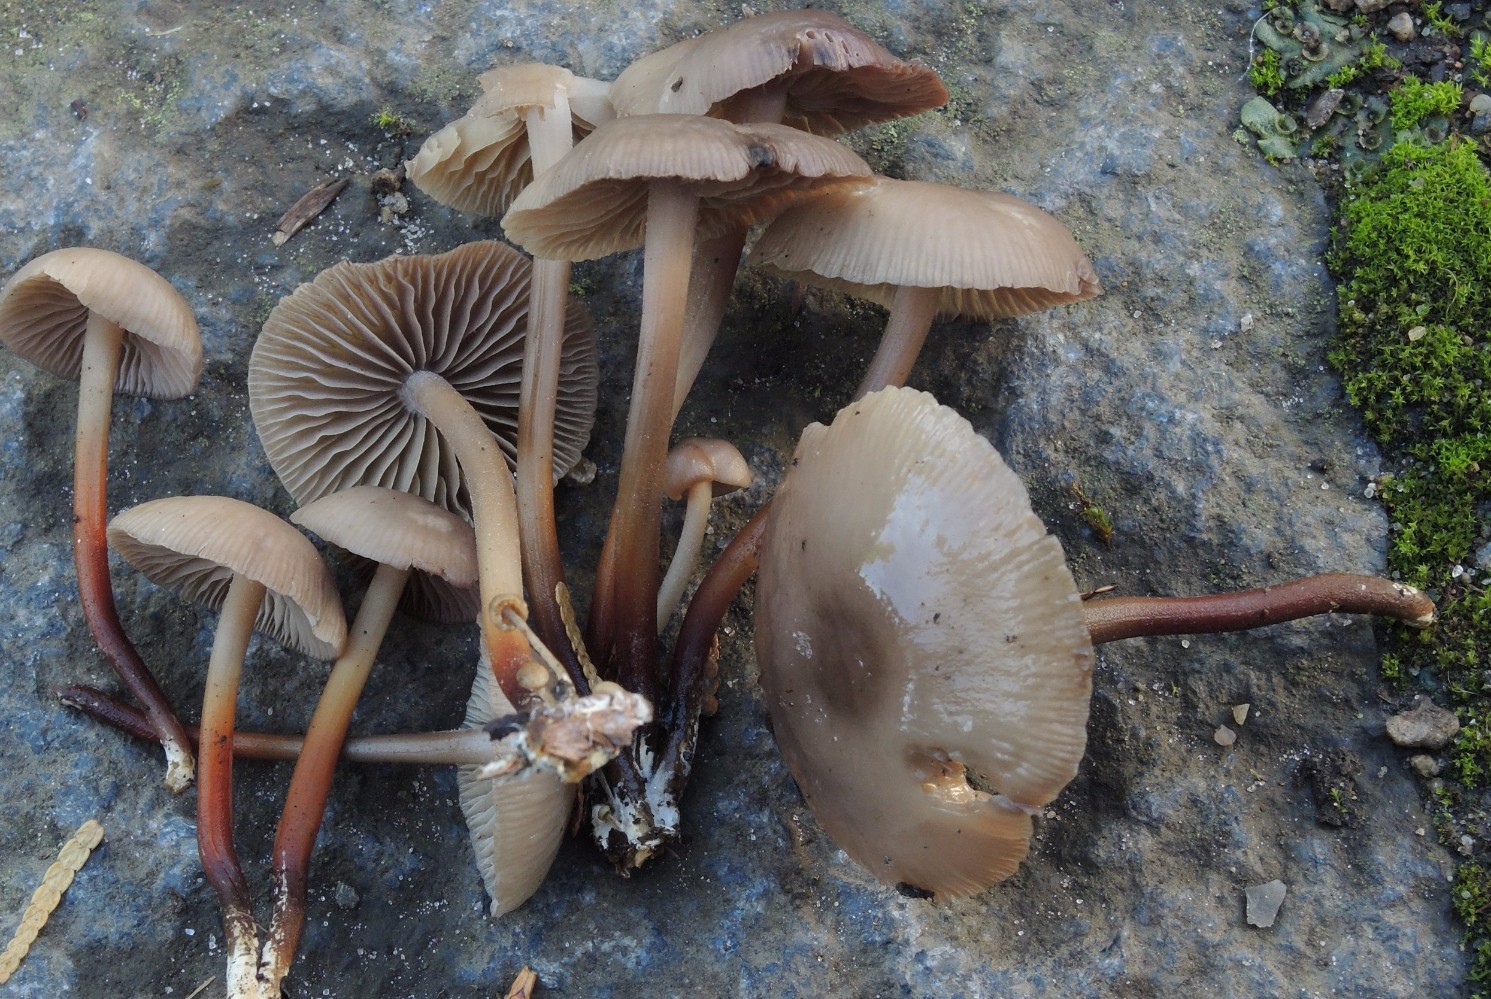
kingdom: Fungi
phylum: Basidiomycota
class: Agaricomycetes
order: Agaricales
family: Marasmiaceae
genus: Marasmius
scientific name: Marasmius wynneae
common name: hvælvet bruskhat
